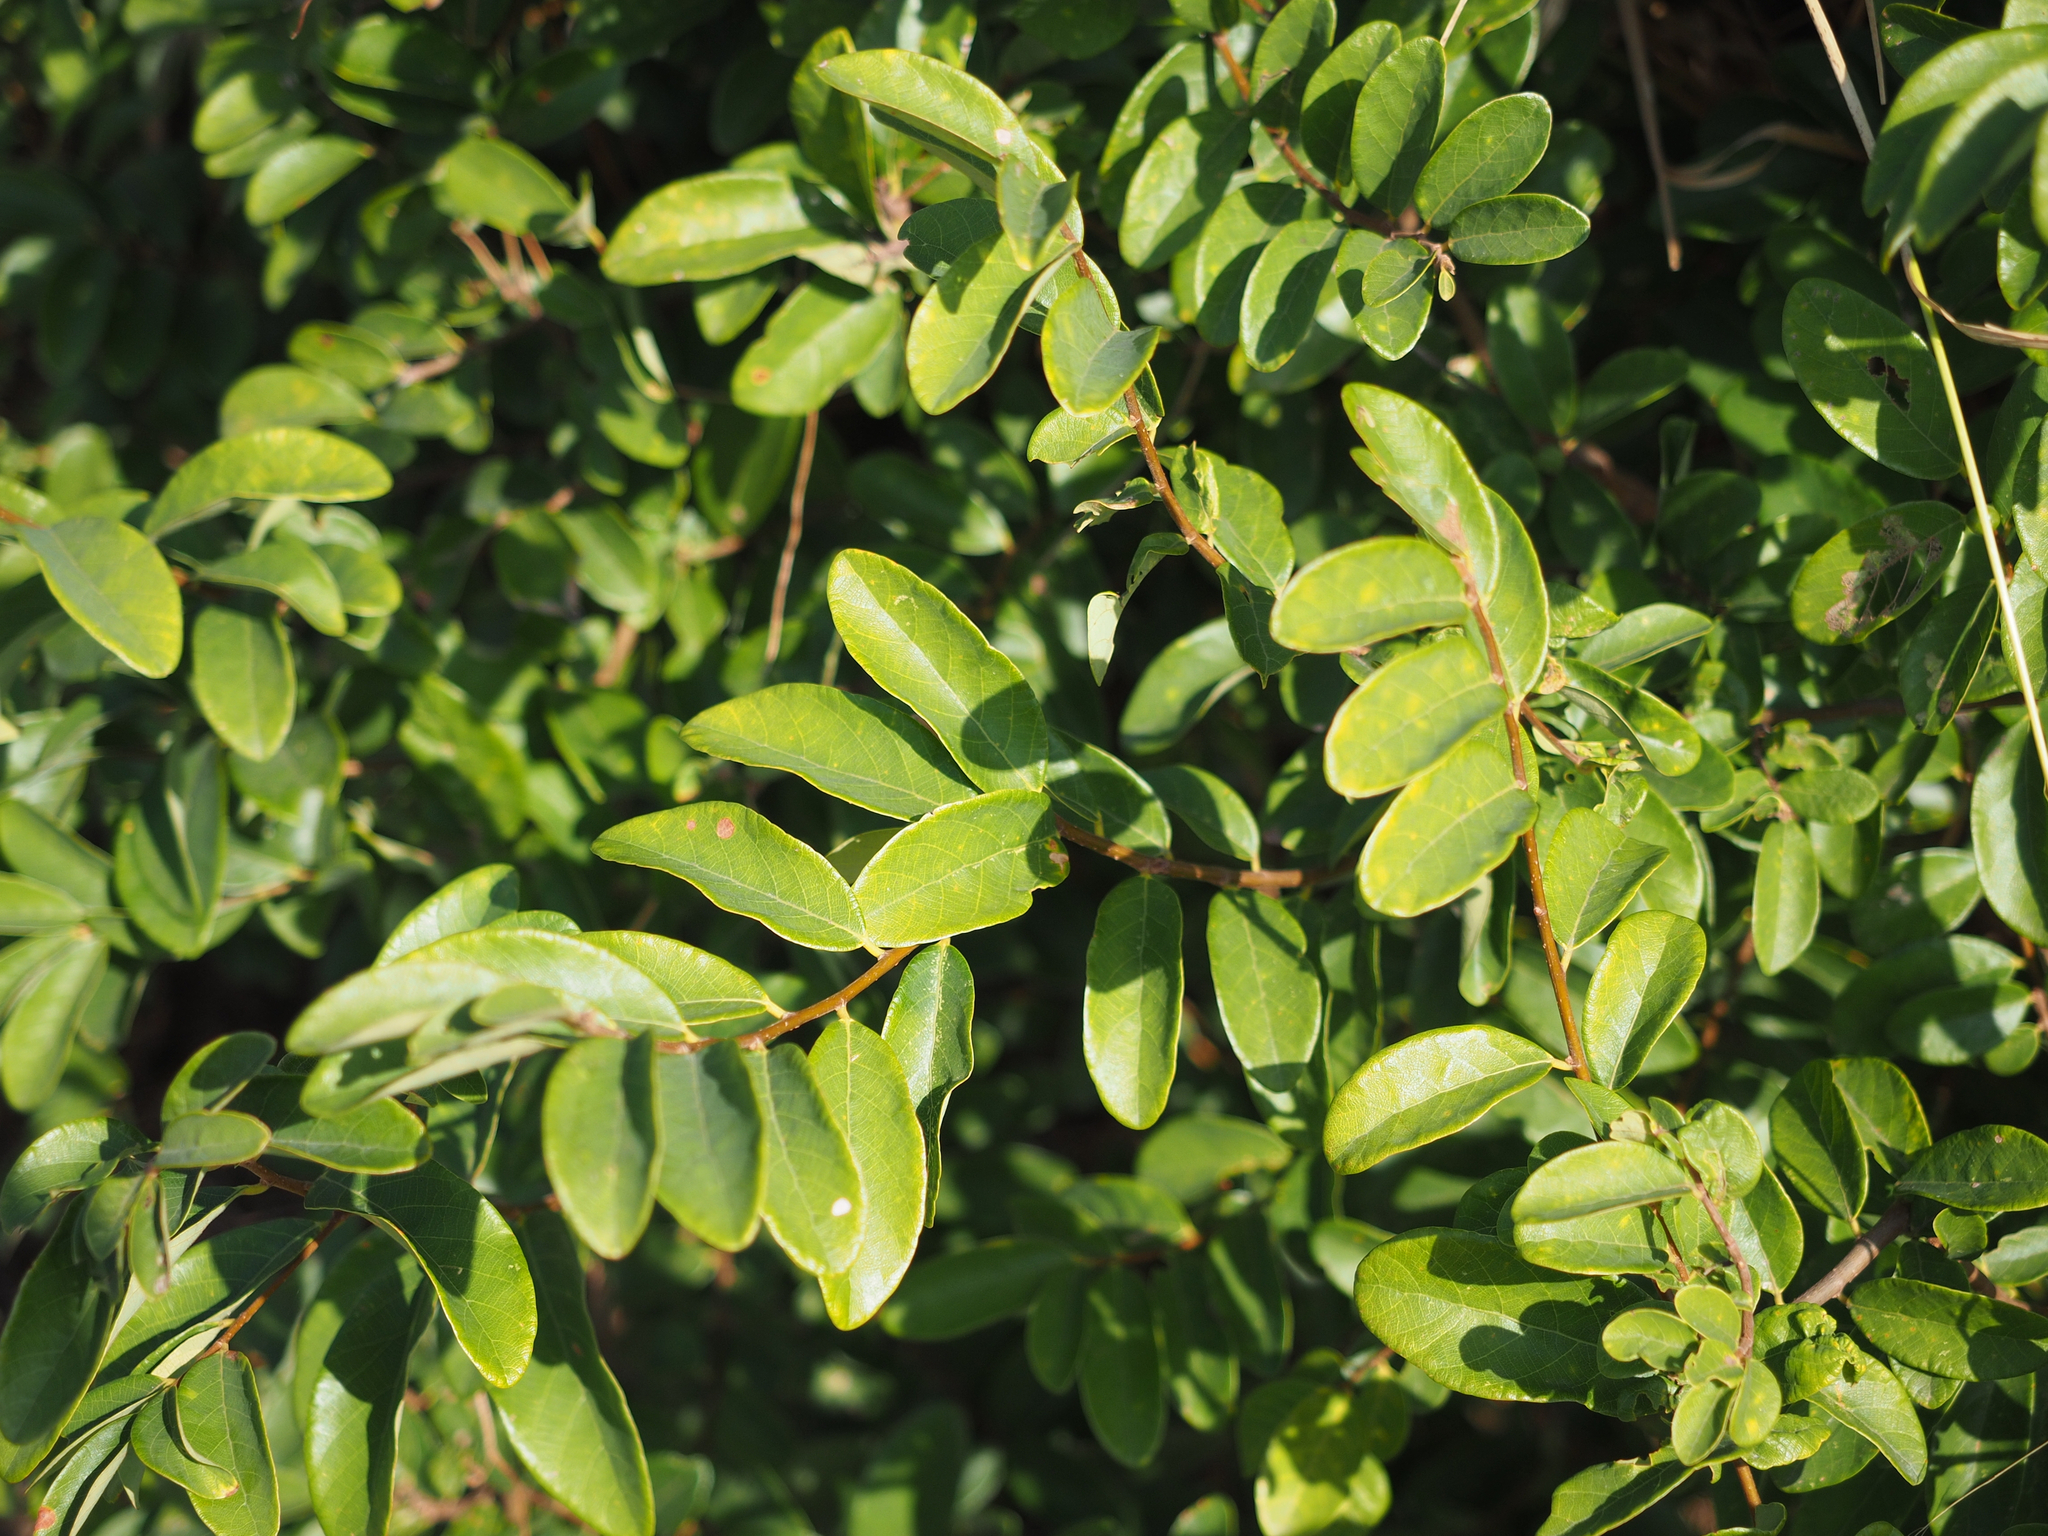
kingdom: Plantae
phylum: Tracheophyta
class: Magnoliopsida
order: Malpighiales
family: Phyllanthaceae
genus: Bridelia
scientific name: Bridelia tomentosa
